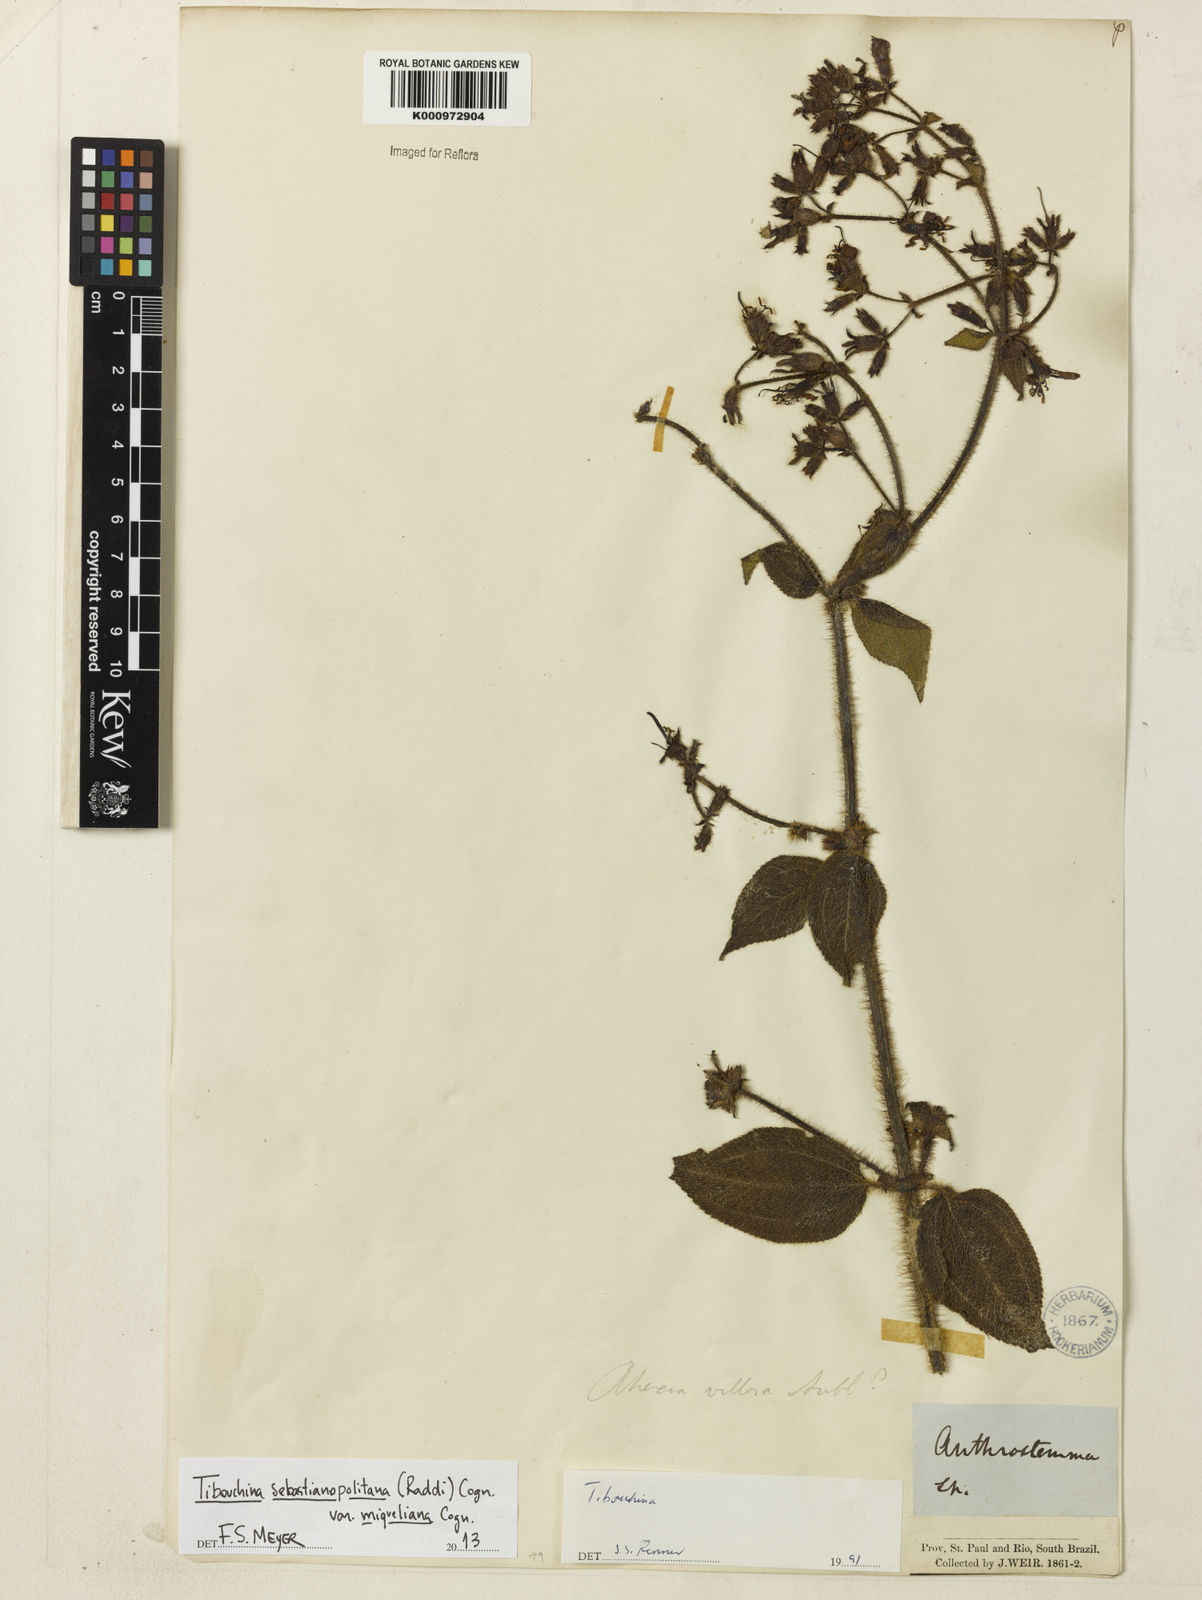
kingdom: Plantae
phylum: Tracheophyta
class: Magnoliopsida
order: Myrtales
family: Melastomataceae
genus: Chaetogastra
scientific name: Chaetogastra sebastianopolitana
